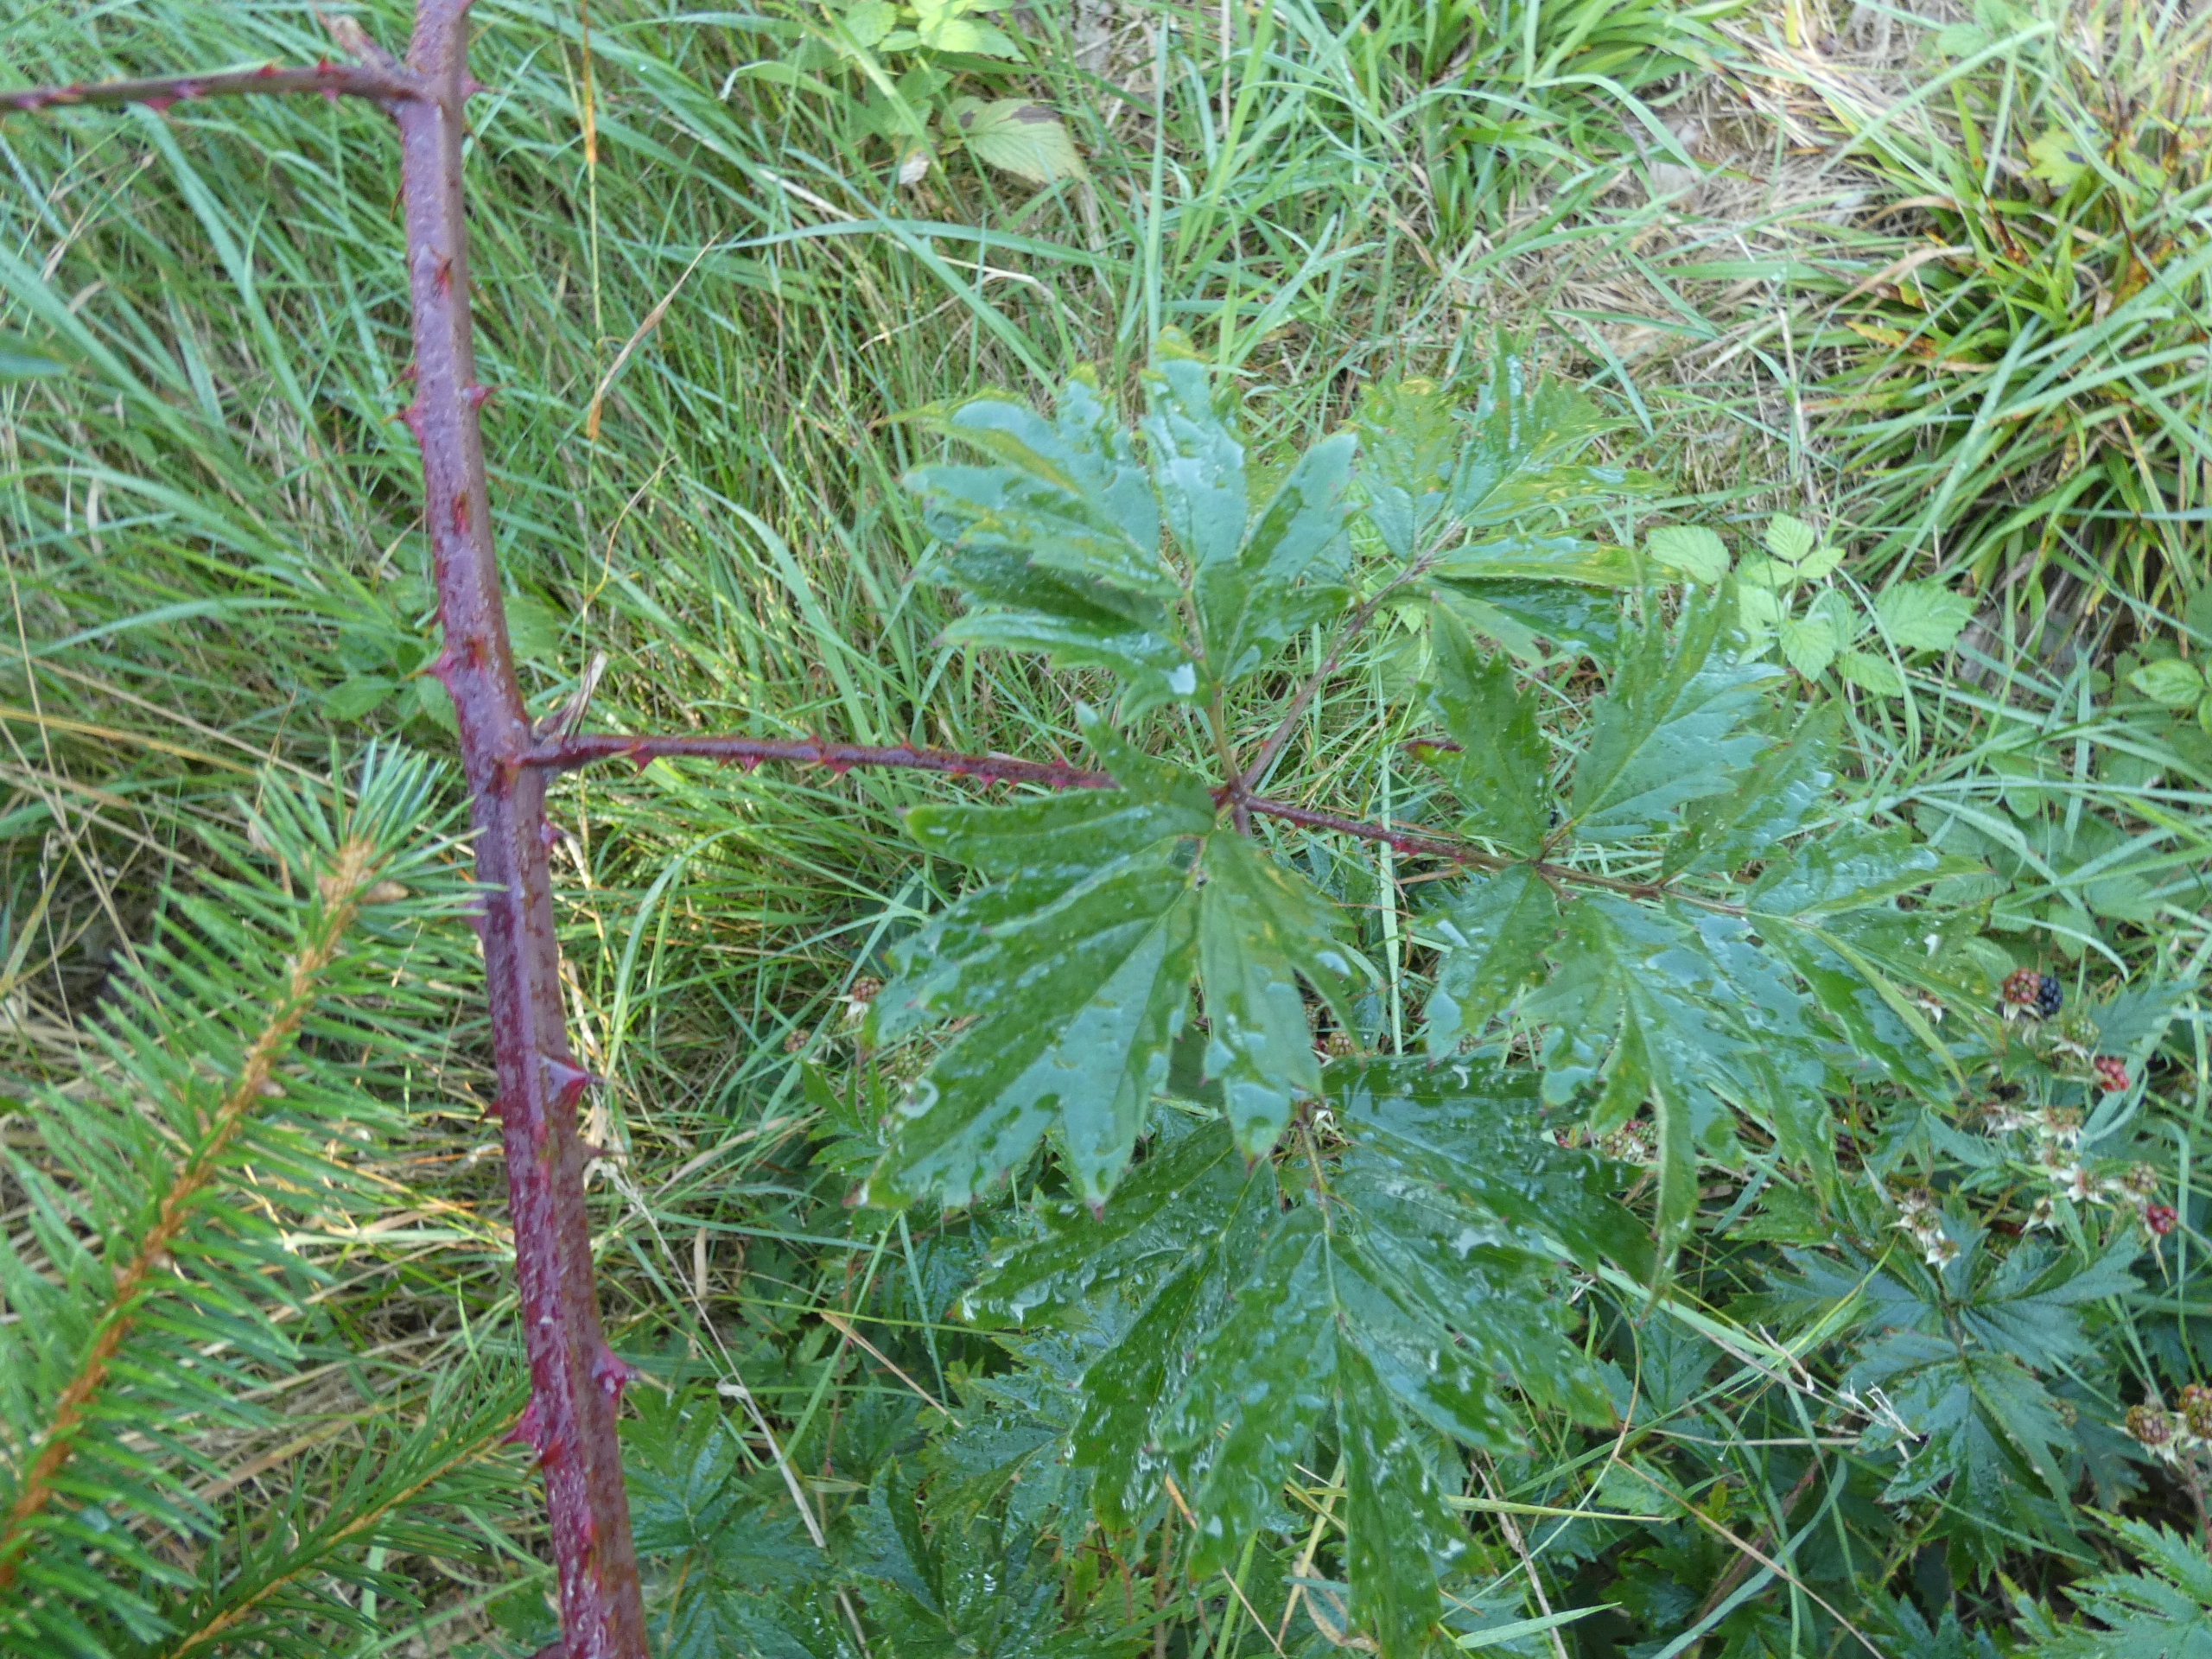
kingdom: Plantae
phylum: Tracheophyta
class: Magnoliopsida
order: Rosales
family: Rosaceae
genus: Rubus
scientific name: Rubus laciniatus
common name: Fliget brombær
